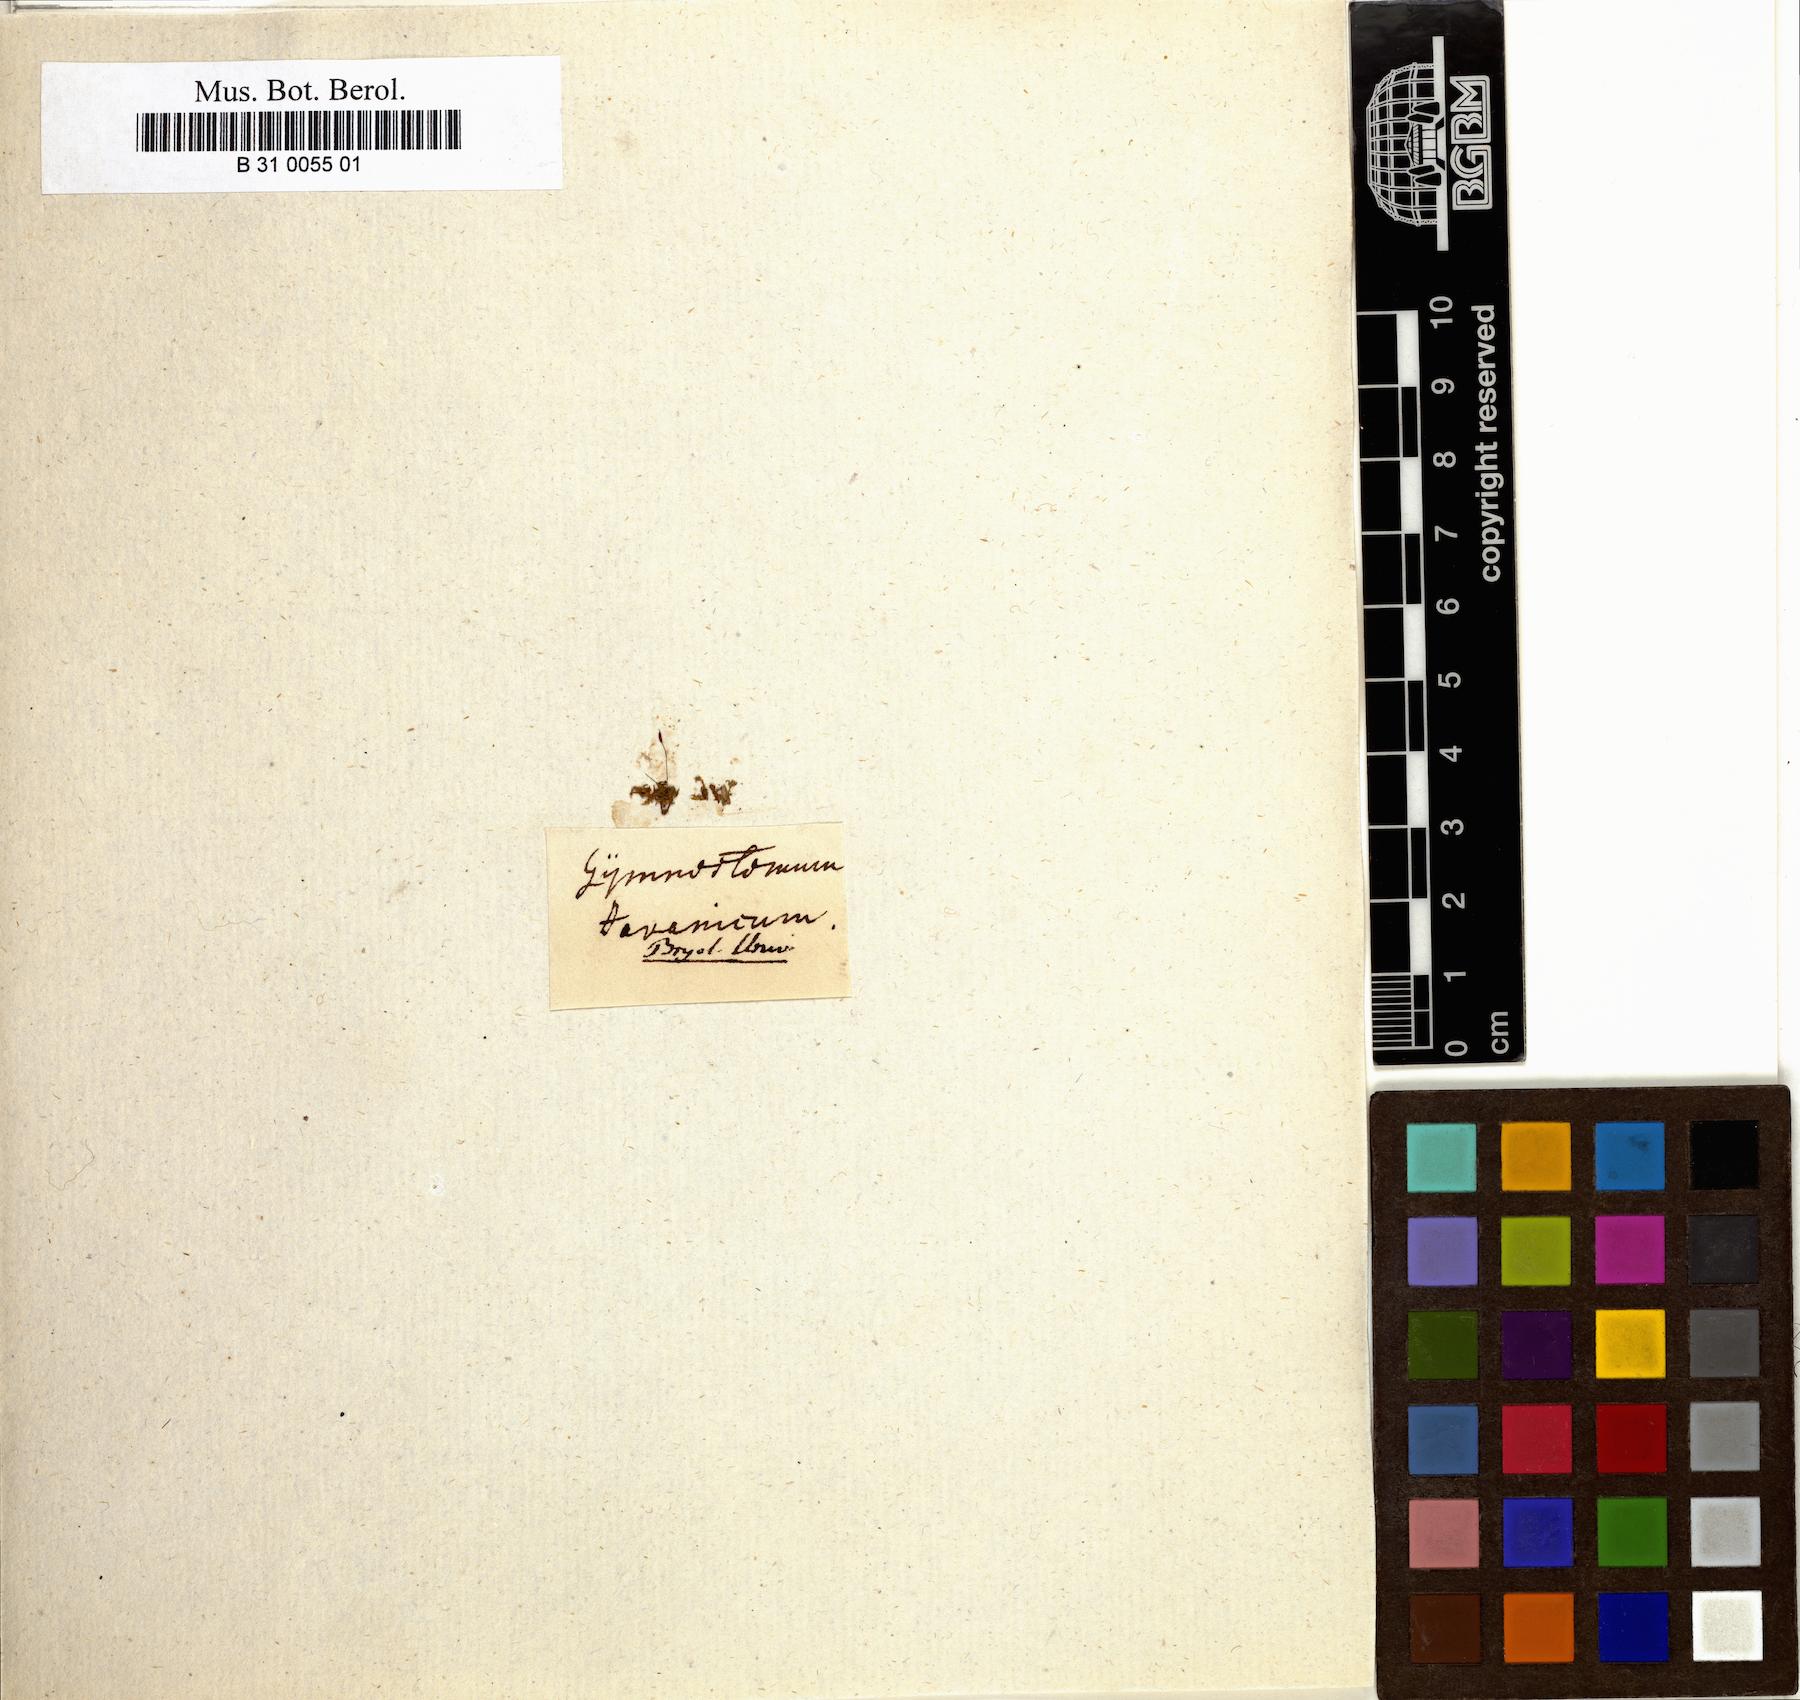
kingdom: Plantae
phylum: Bryophyta
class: Bryopsida
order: Pottiales
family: Pottiaceae
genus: Hyophila
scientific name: Hyophila javanica
